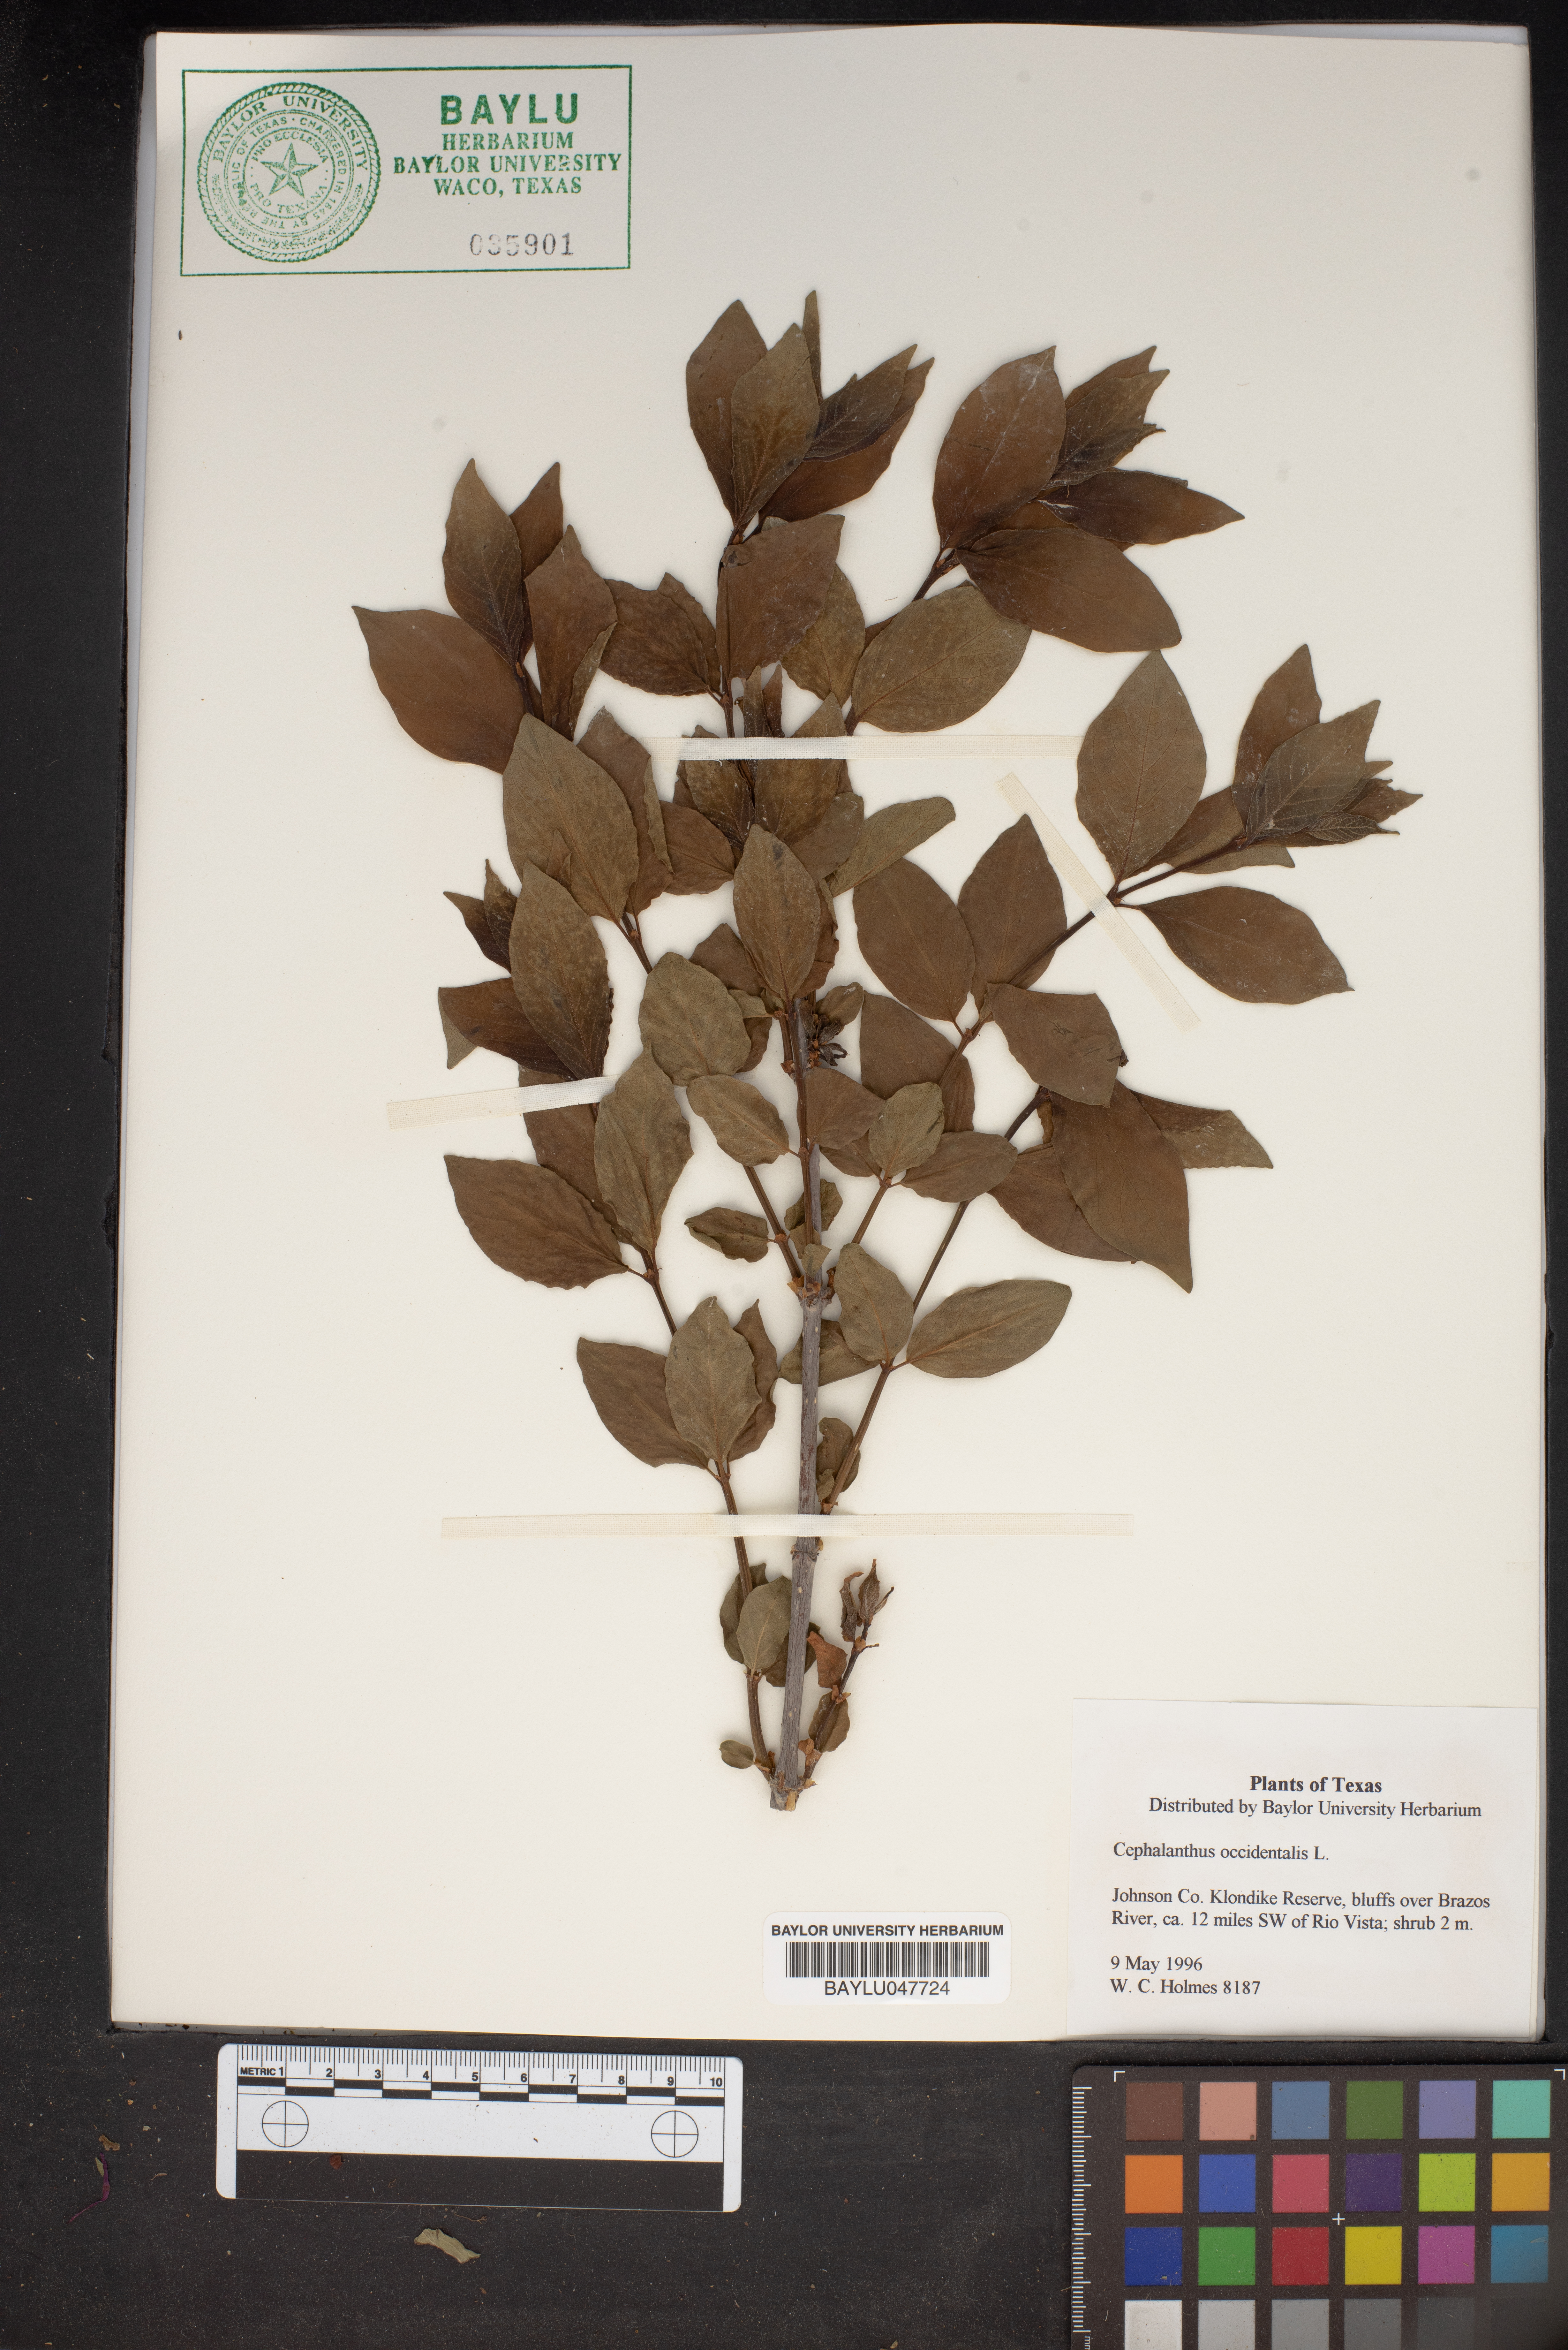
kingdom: Plantae
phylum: Tracheophyta
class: Magnoliopsida
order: Gentianales
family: Rubiaceae
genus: Cephalanthus
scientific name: Cephalanthus occidentalis
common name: Button-willow
